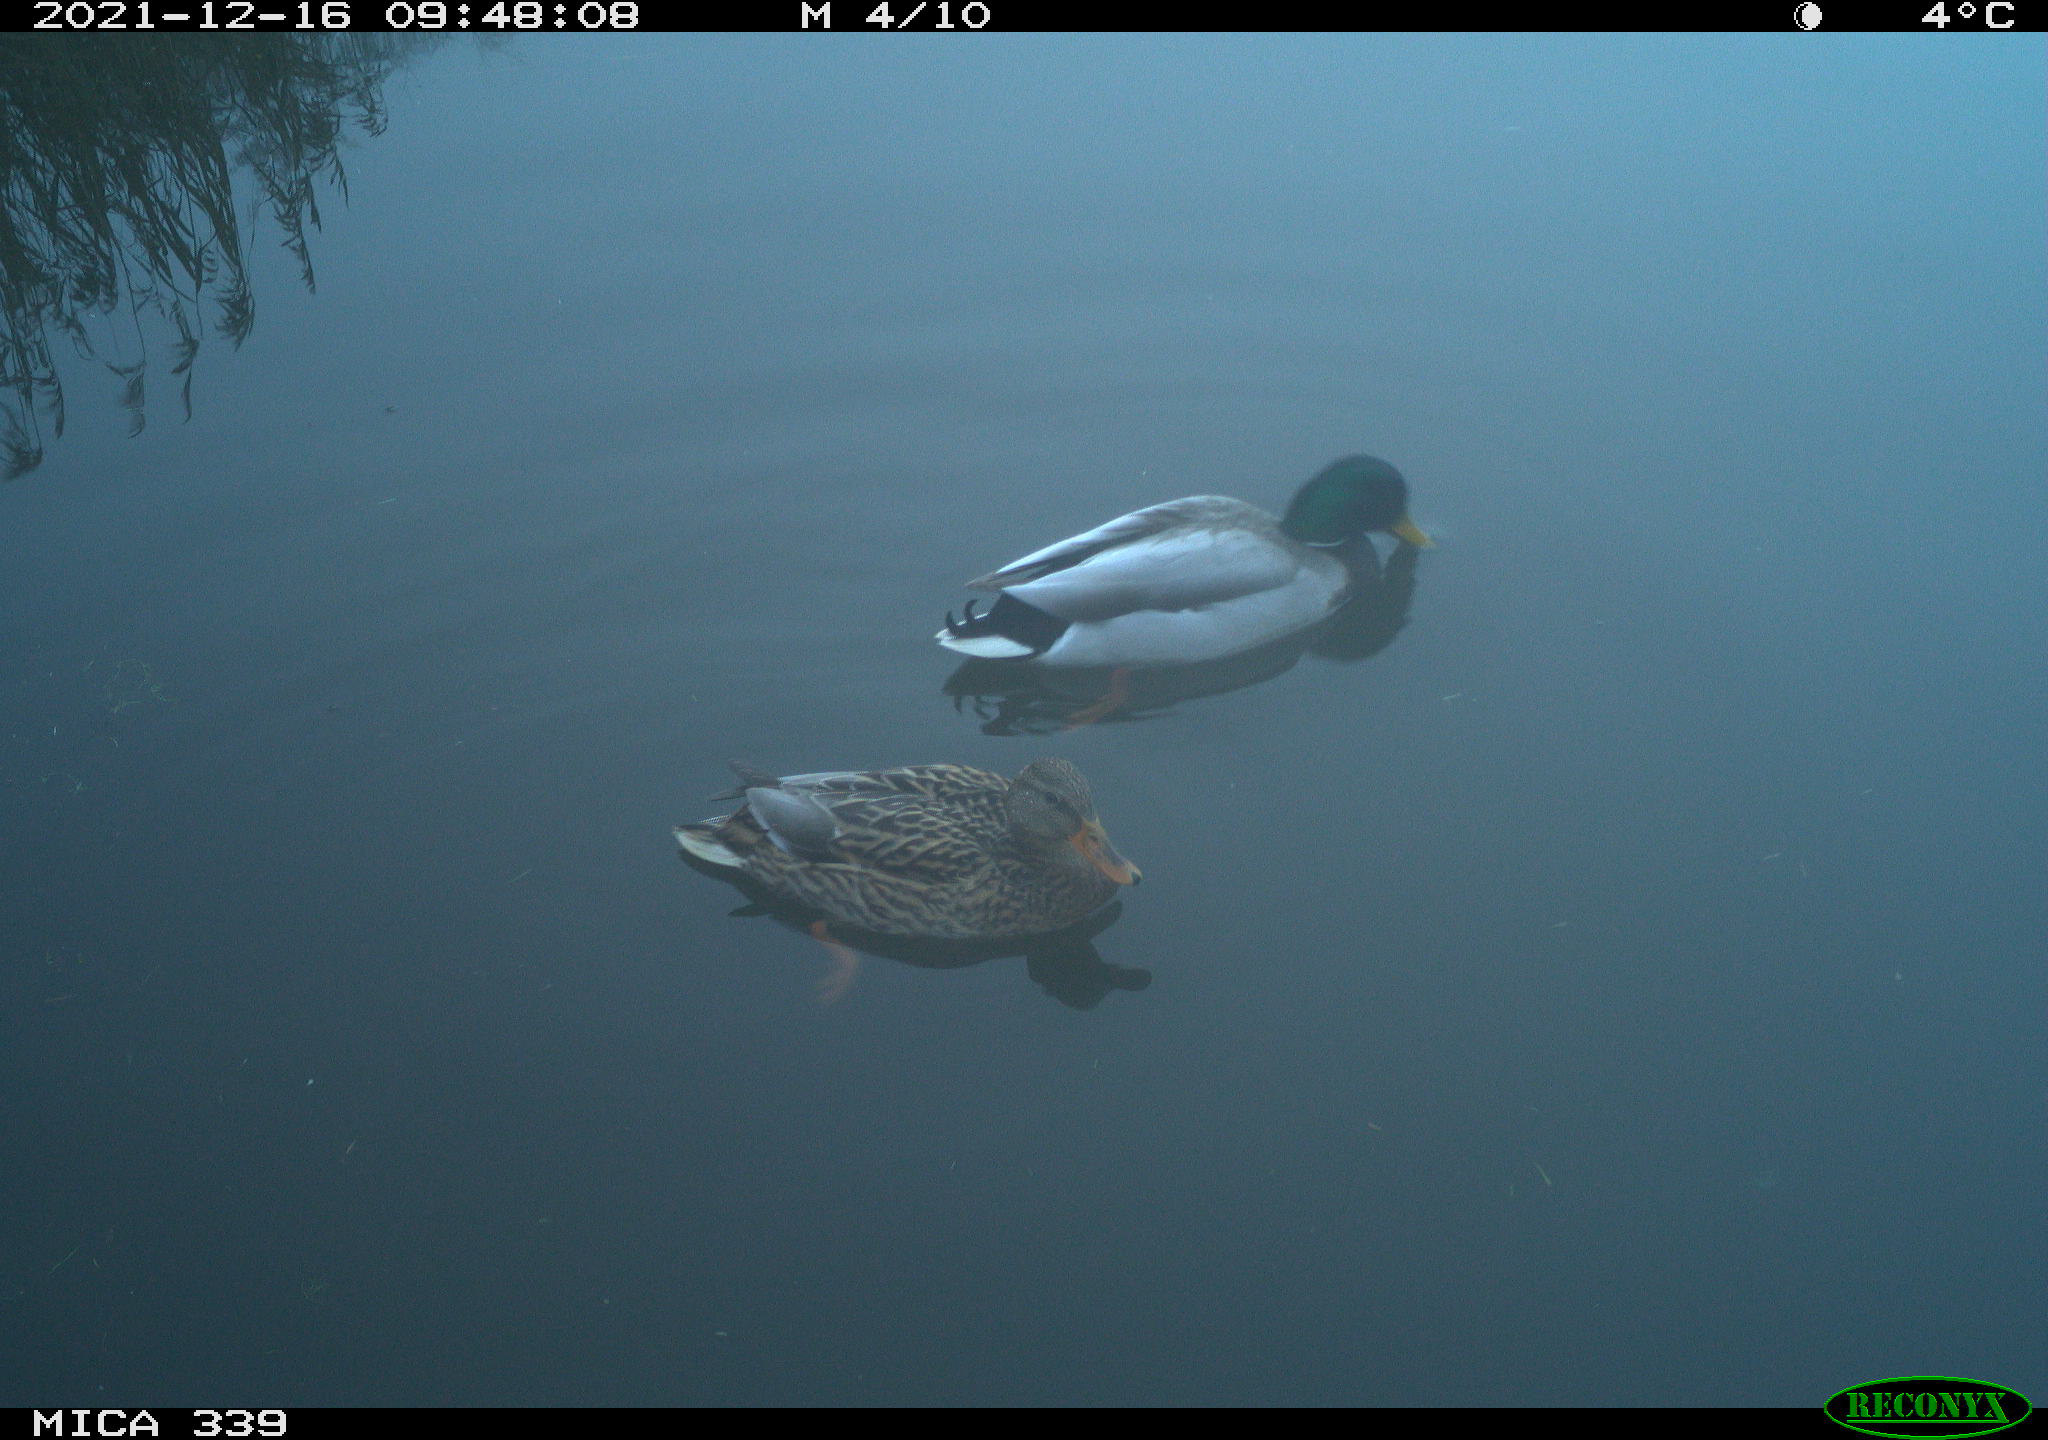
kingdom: Animalia
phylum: Chordata
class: Aves
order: Anseriformes
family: Anatidae
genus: Anas
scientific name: Anas platyrhynchos
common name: Mallard
